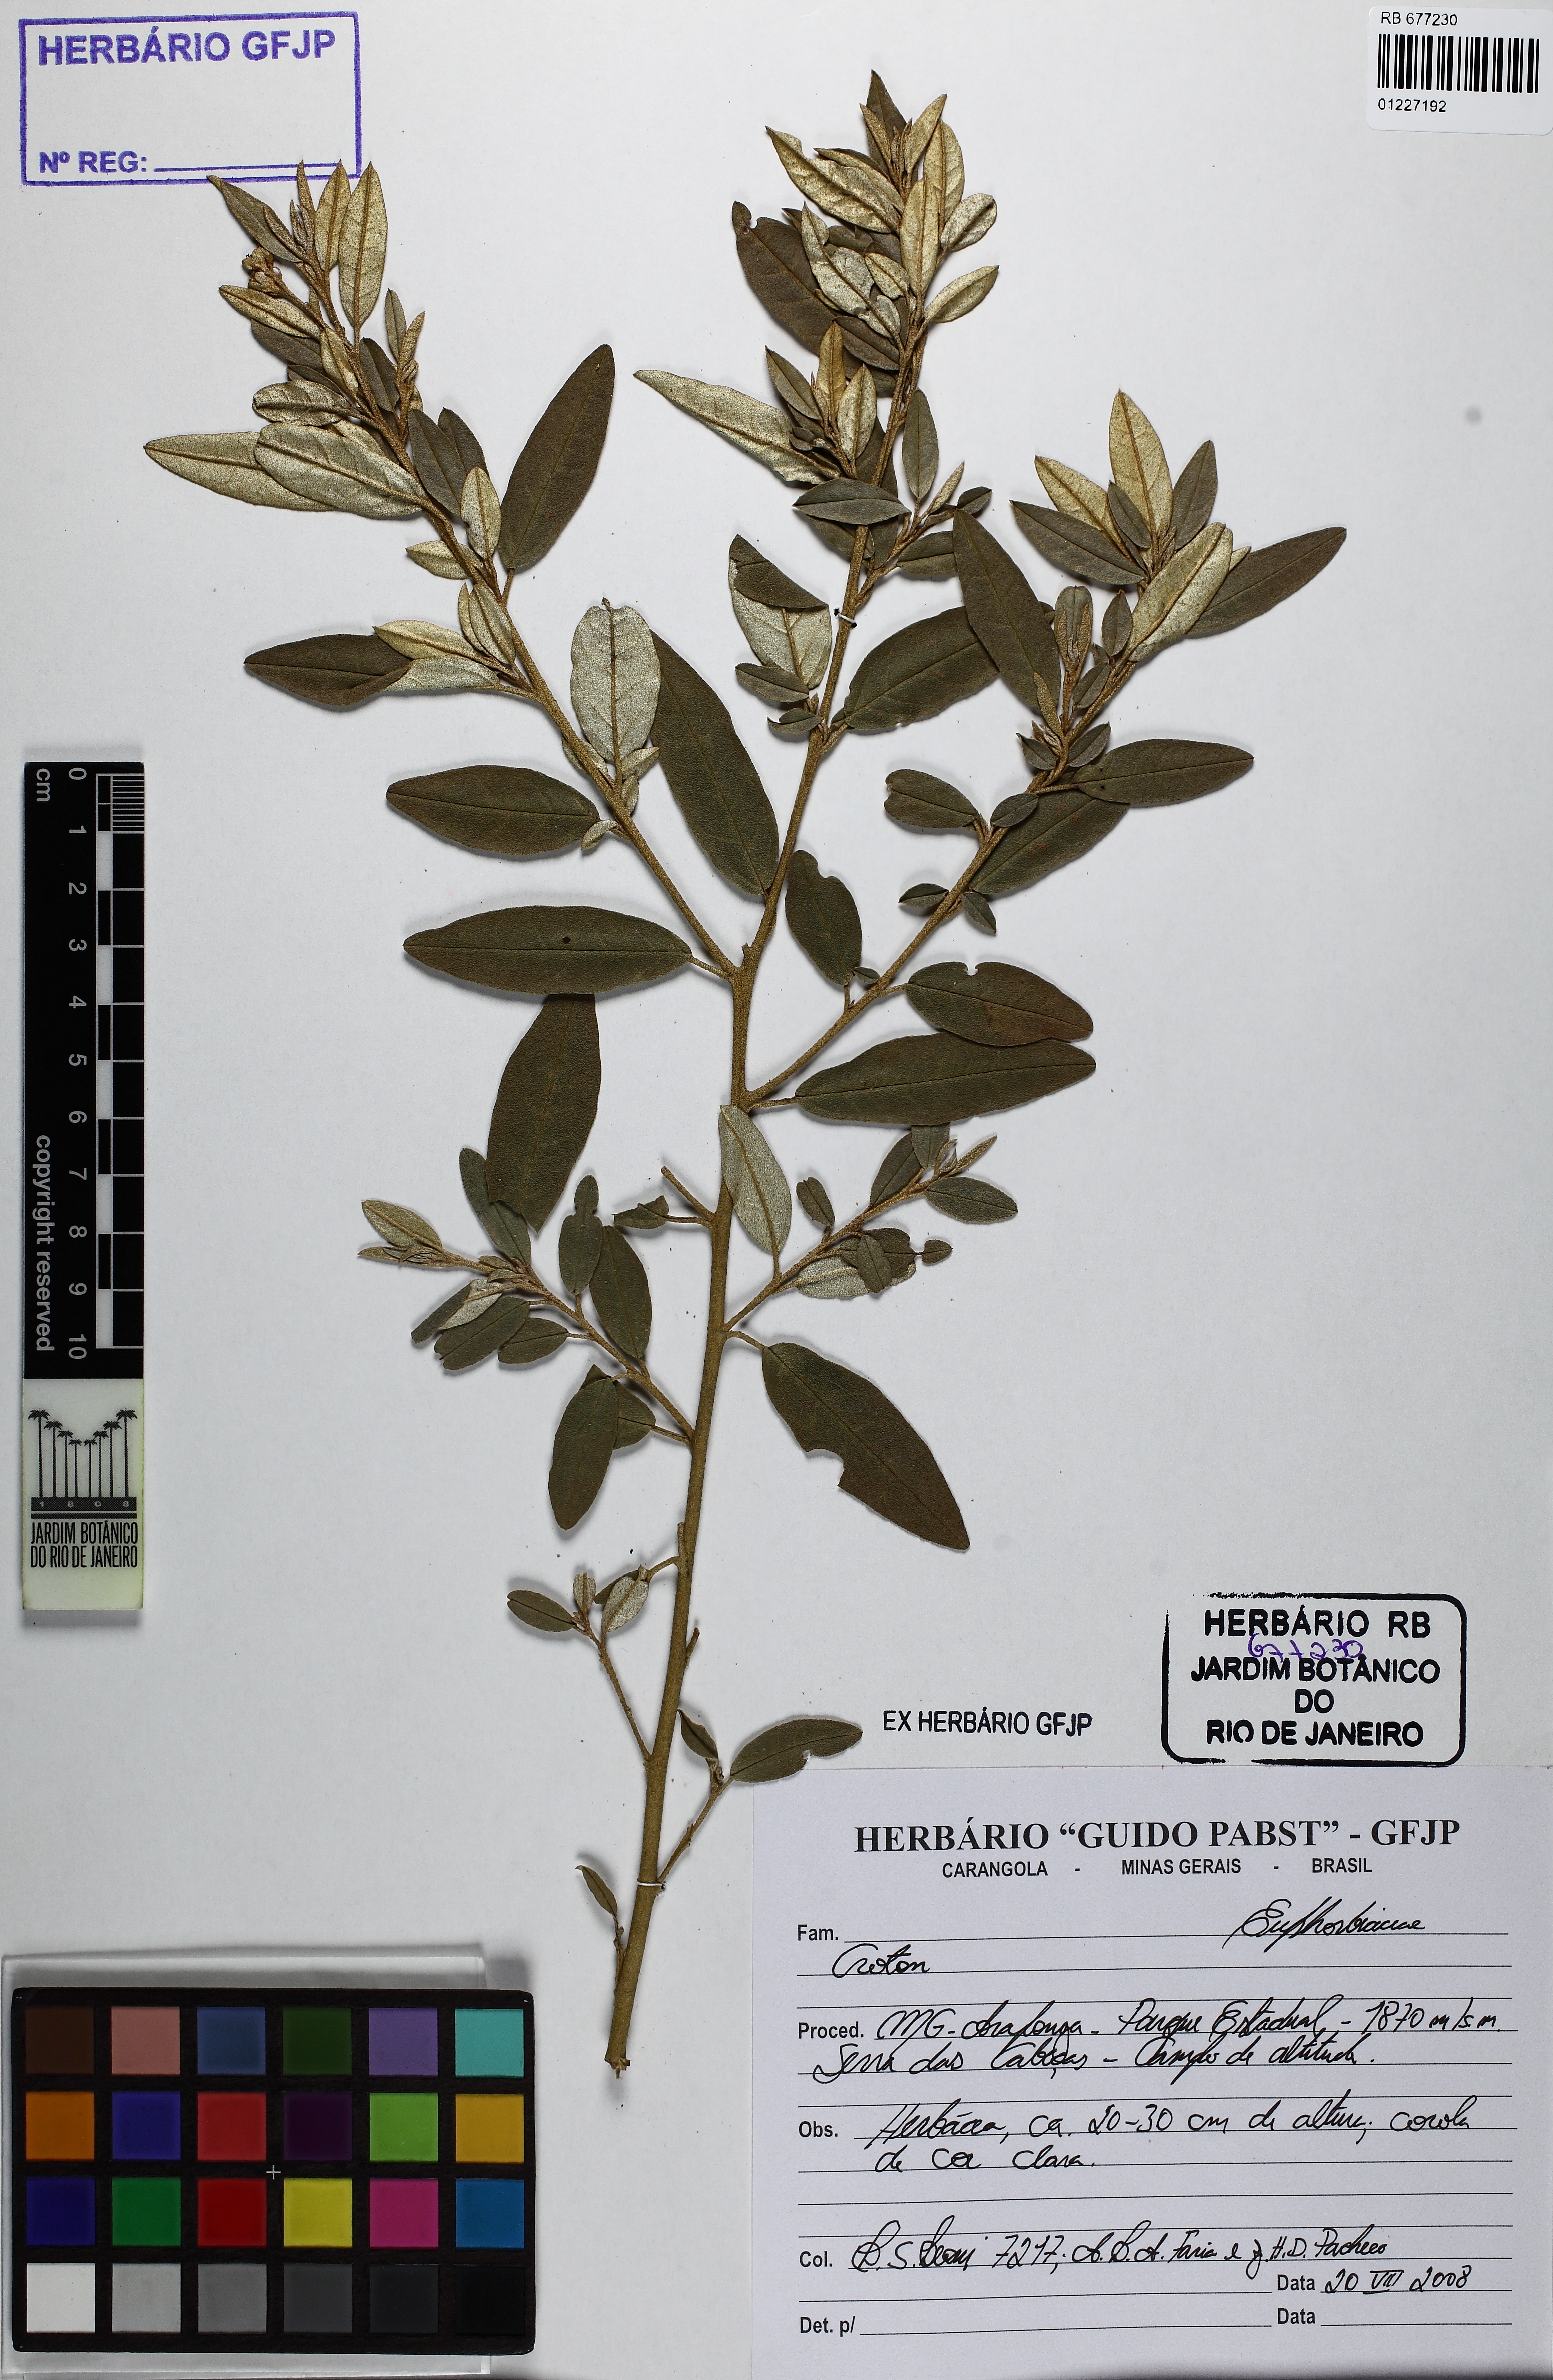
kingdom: Plantae
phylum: Tracheophyta
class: Magnoliopsida
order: Malpighiales
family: Euphorbiaceae
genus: Croton
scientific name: Croton erythroxyloides
